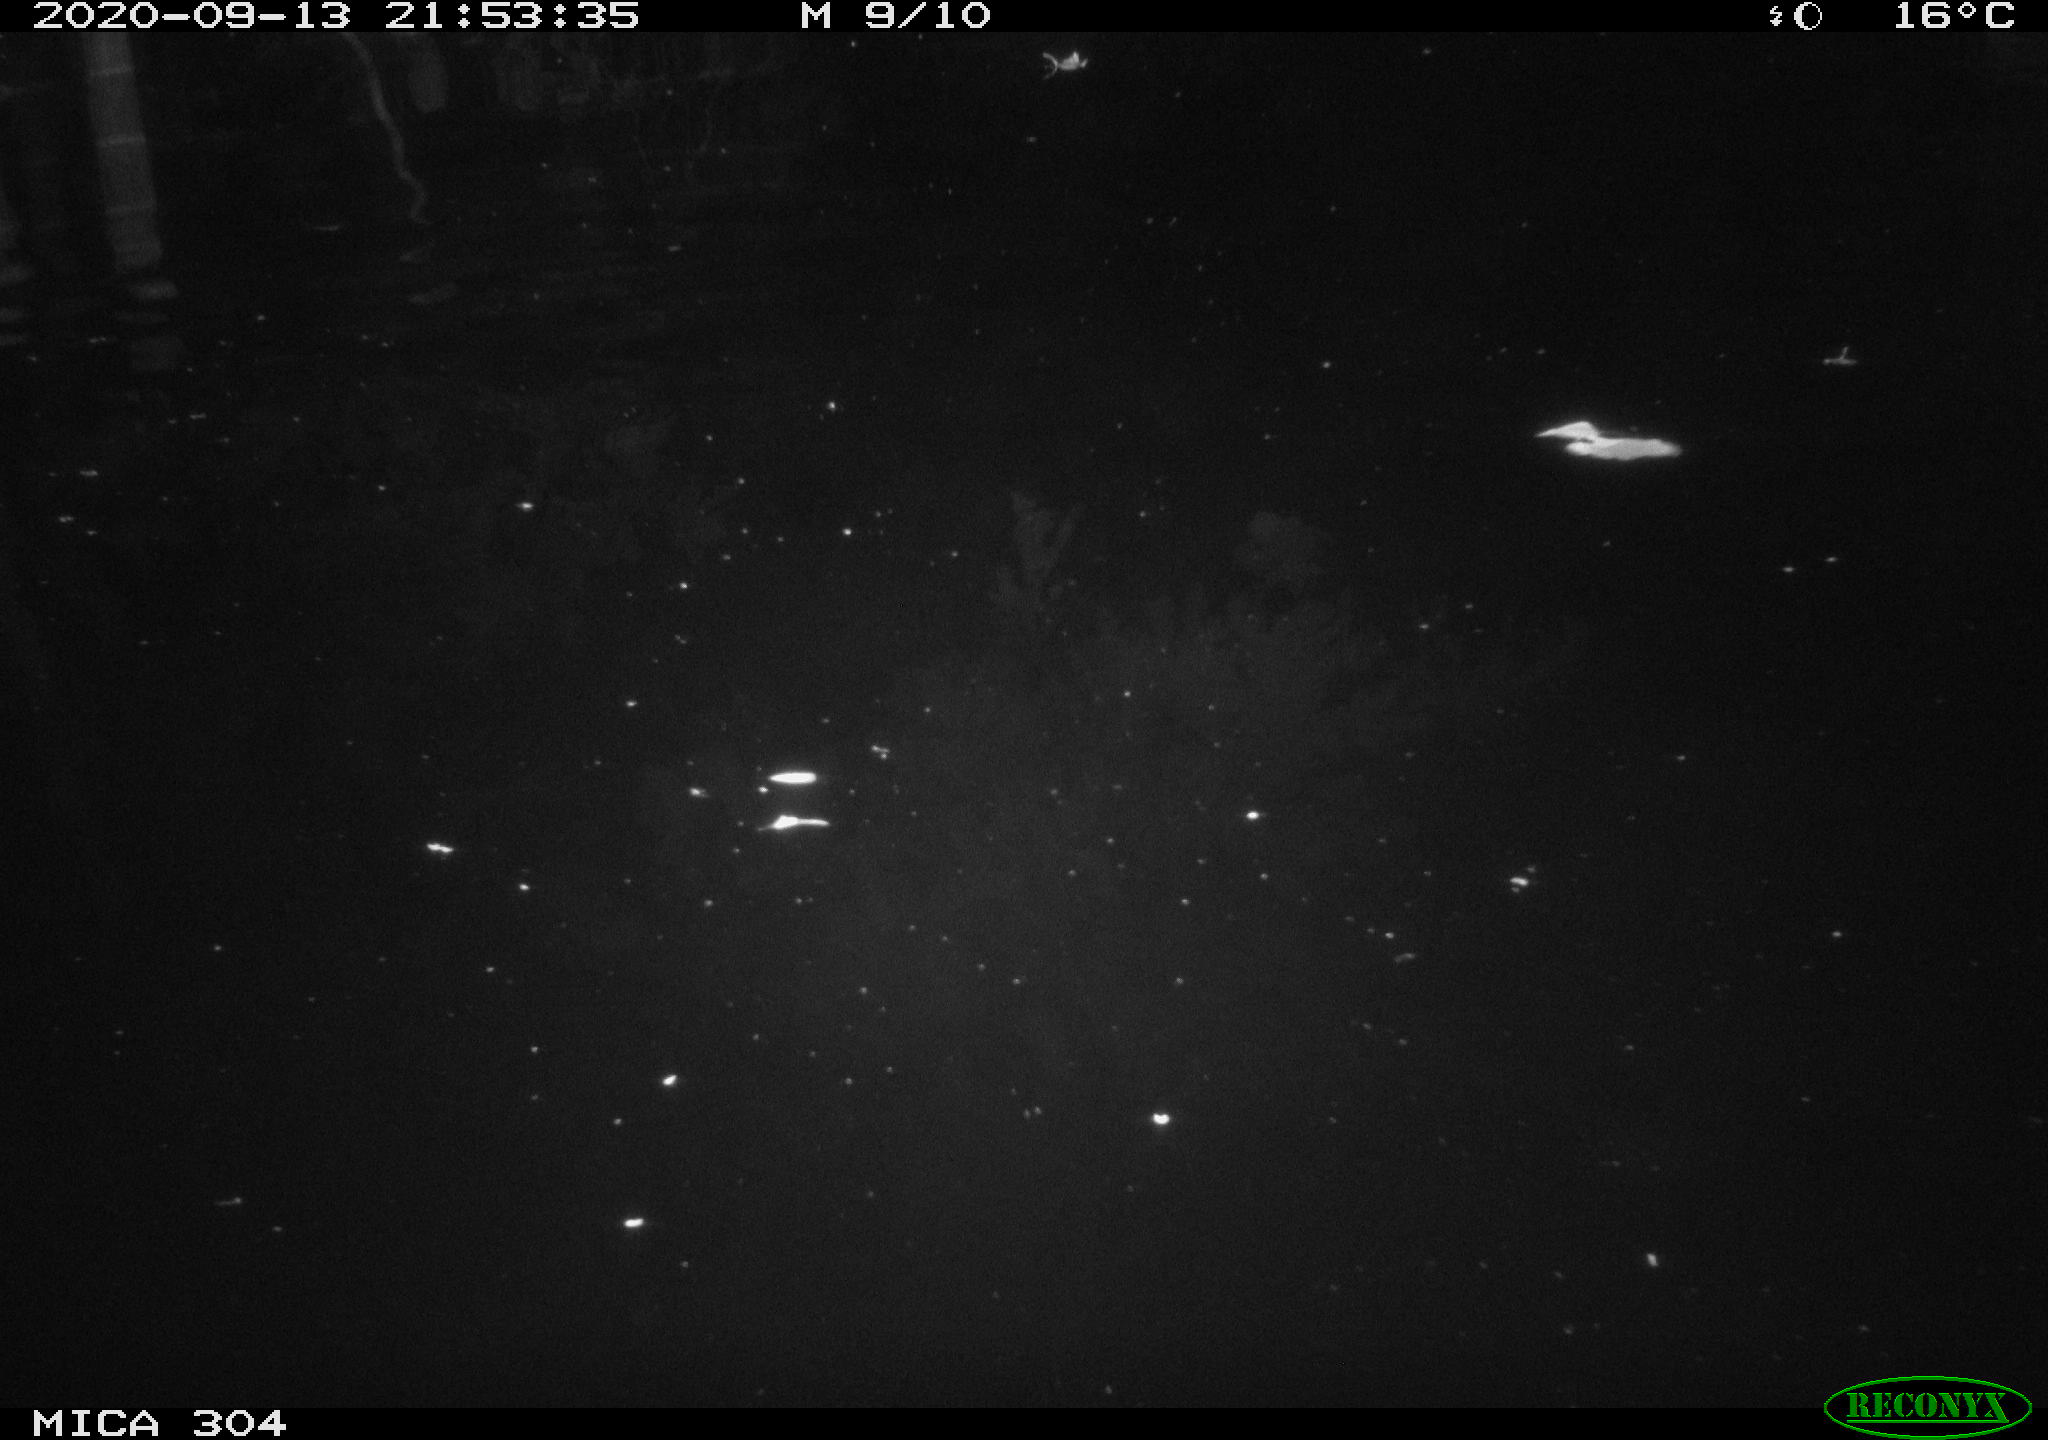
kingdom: Animalia
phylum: Chordata
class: Mammalia
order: Rodentia
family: Muridae
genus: Rattus
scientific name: Rattus norvegicus
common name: Brown rat
